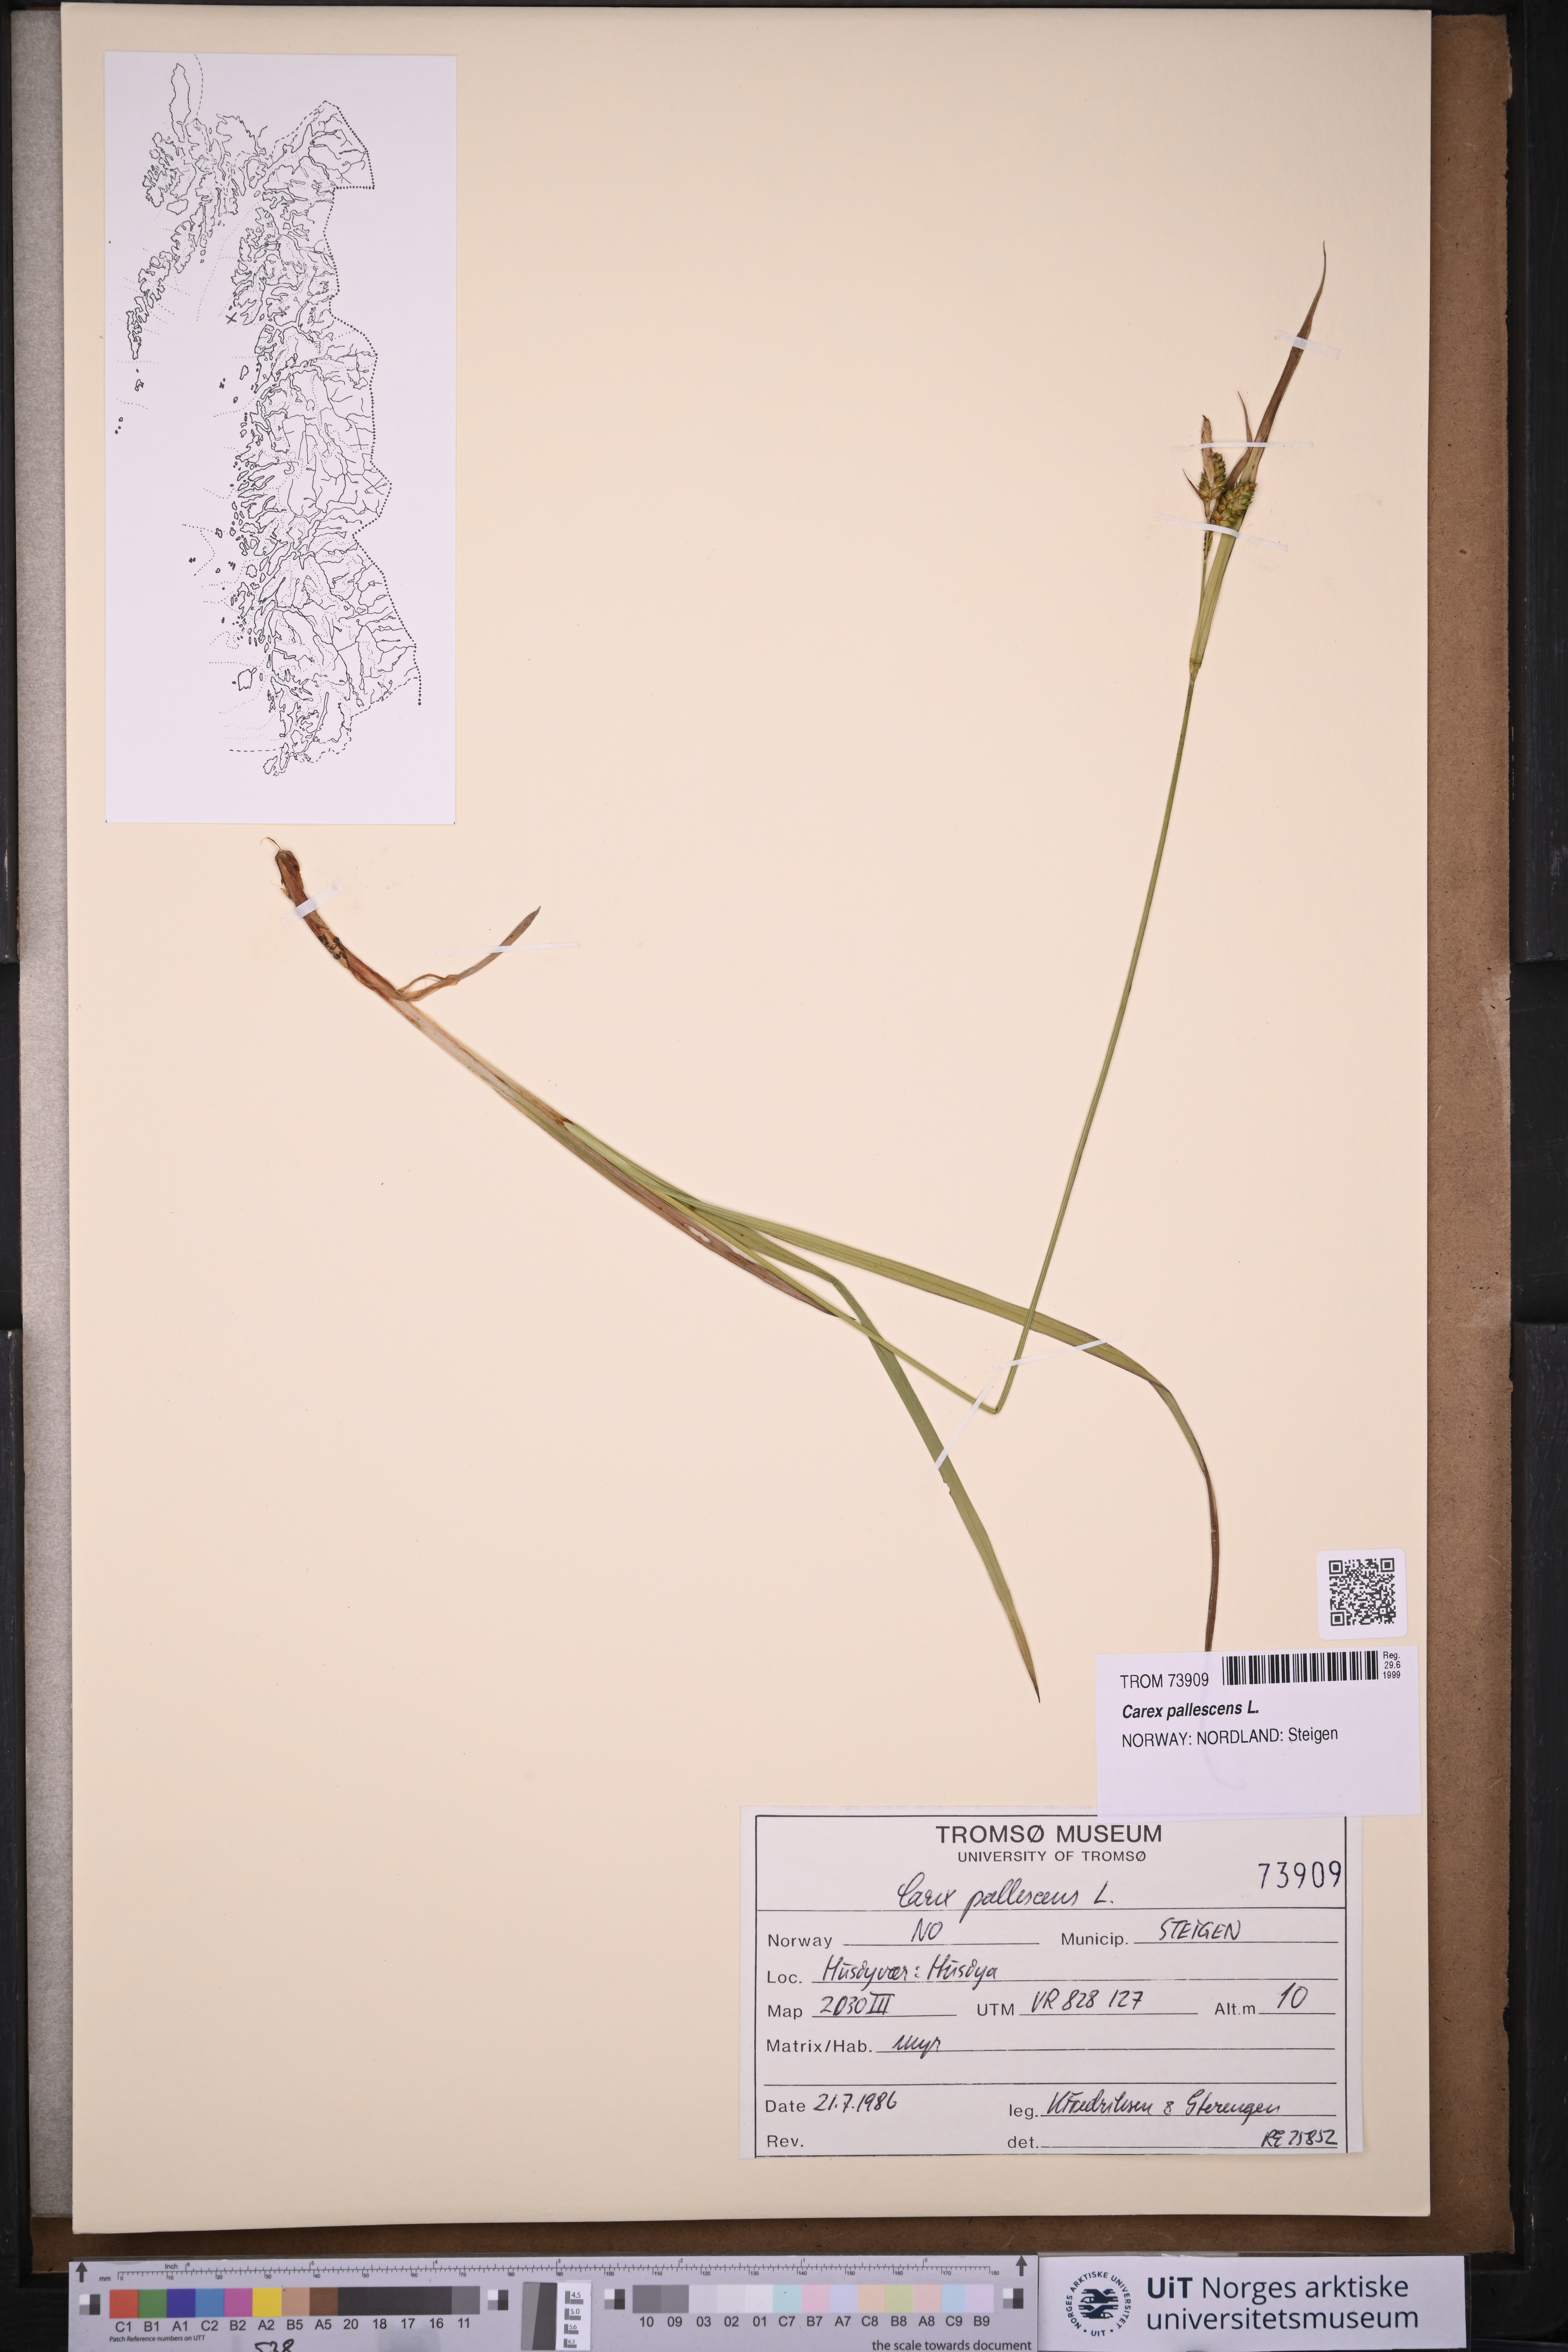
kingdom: Plantae
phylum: Tracheophyta
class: Liliopsida
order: Poales
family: Cyperaceae
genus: Carex
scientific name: Carex pallescens
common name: Pale sedge
